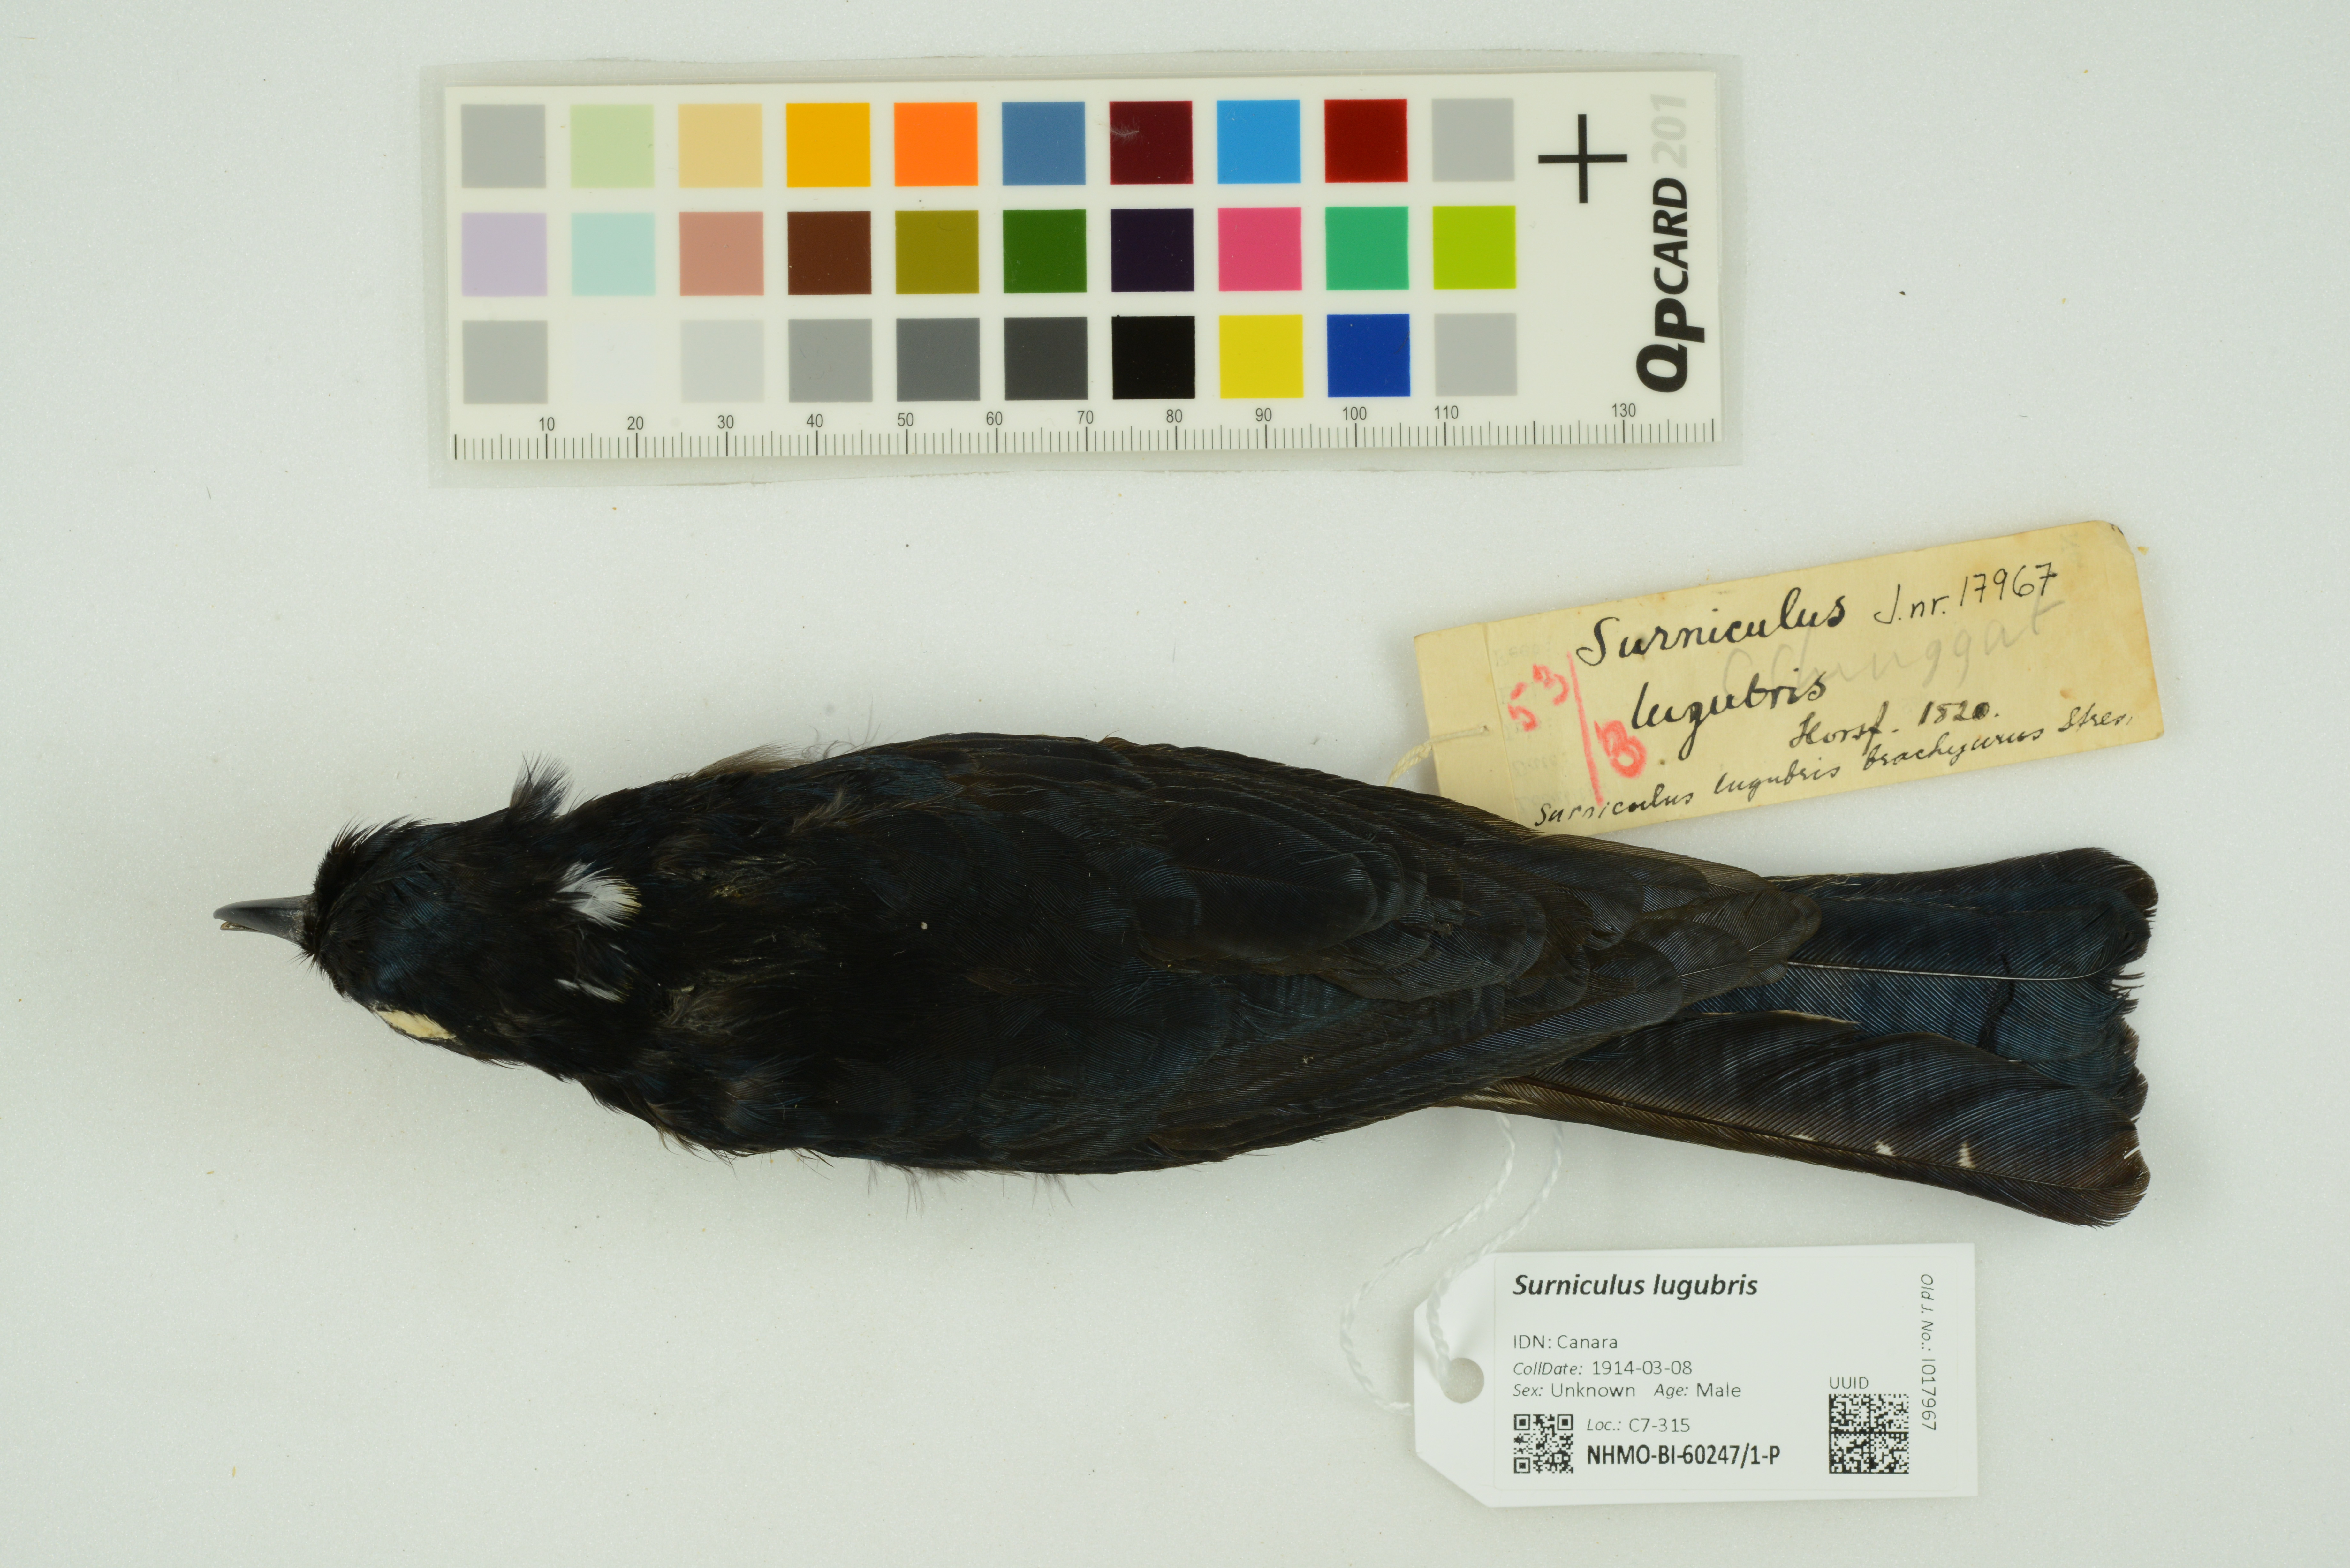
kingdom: Animalia
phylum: Chordata
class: Aves
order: Cuculiformes
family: Cuculidae
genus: Surniculus
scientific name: Surniculus lugubris
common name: Square-tailed drongo-cuckoo
